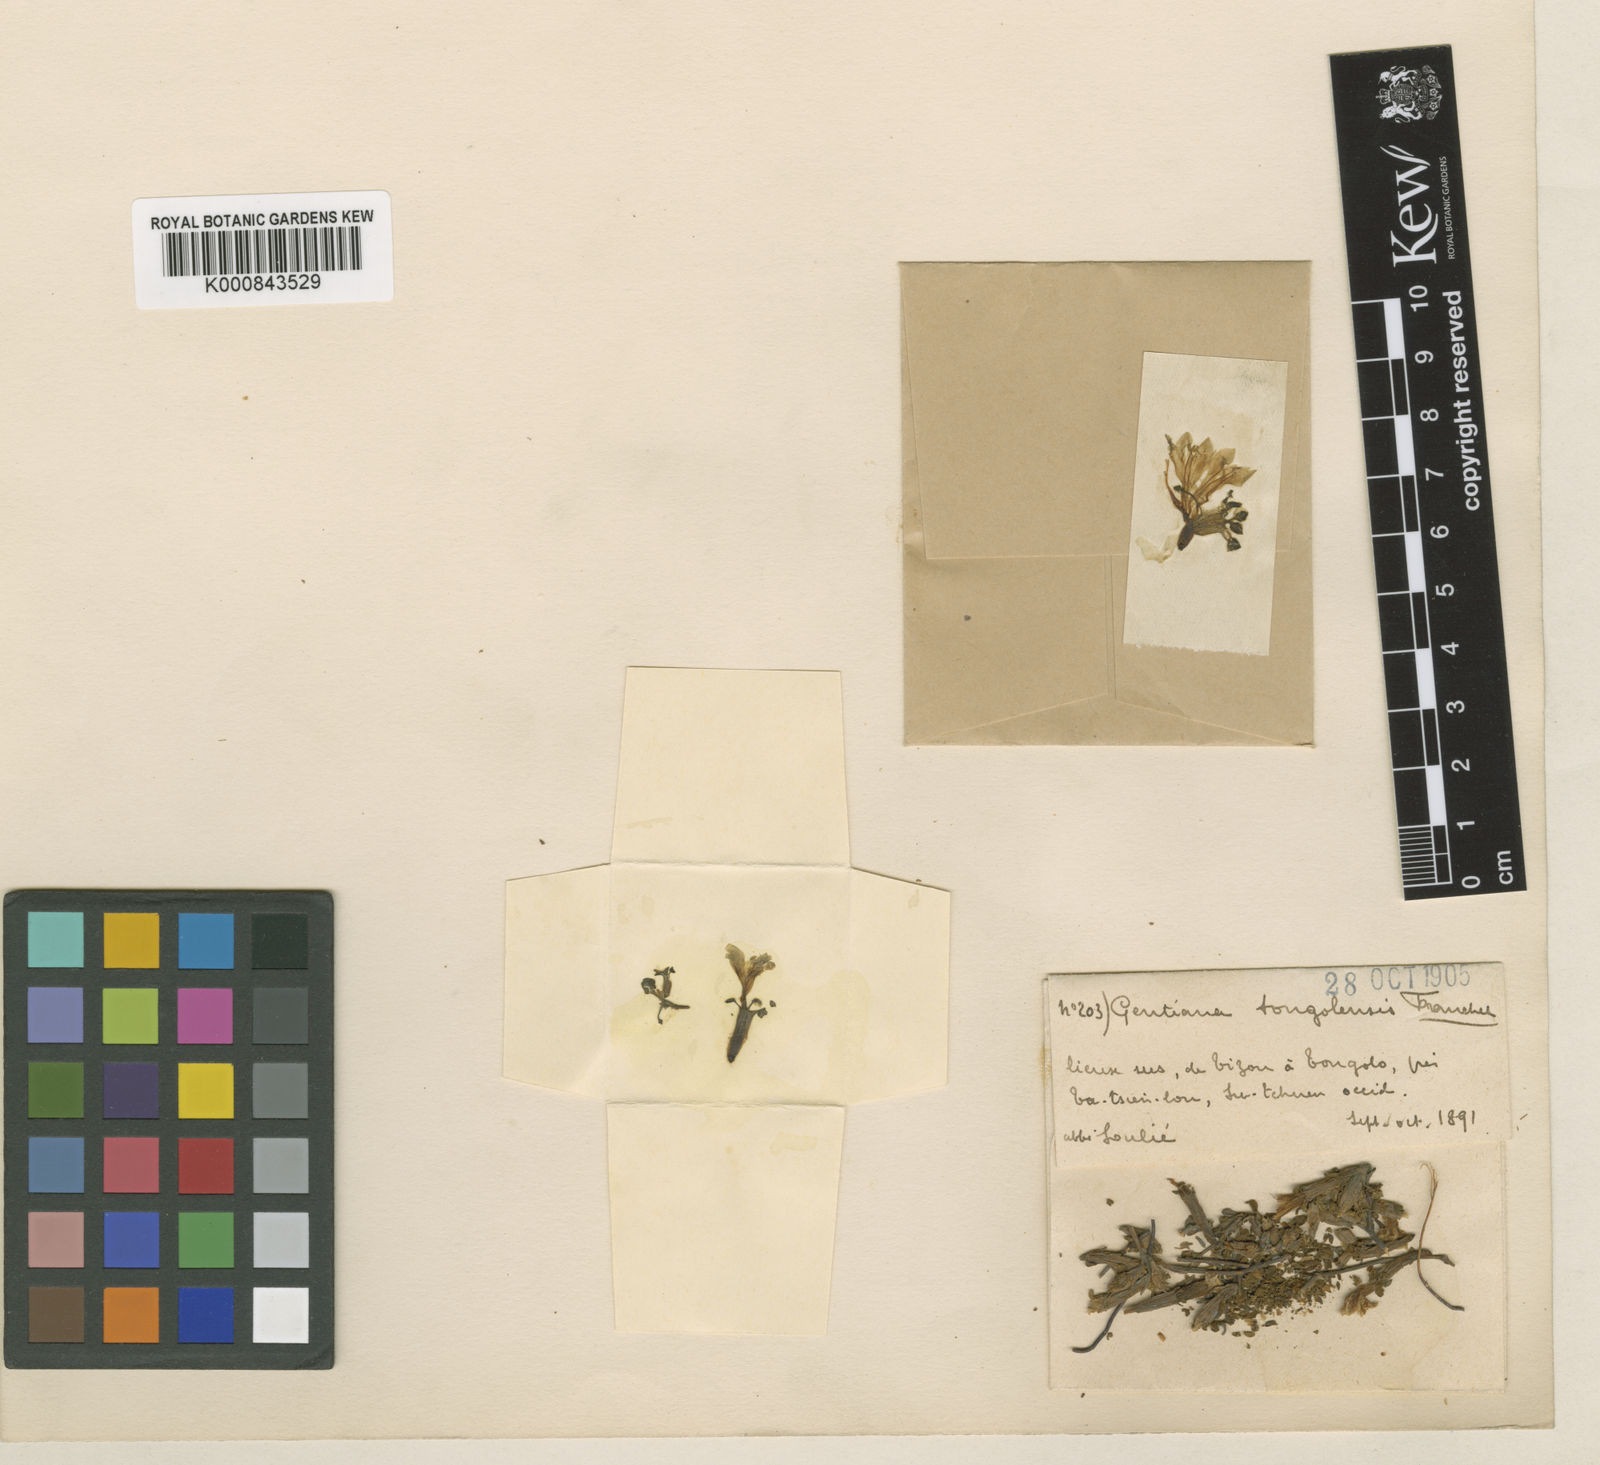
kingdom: Plantae
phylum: Tracheophyta
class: Magnoliopsida
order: Gentianales
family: Gentianaceae
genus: Gentiana
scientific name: Gentiana
